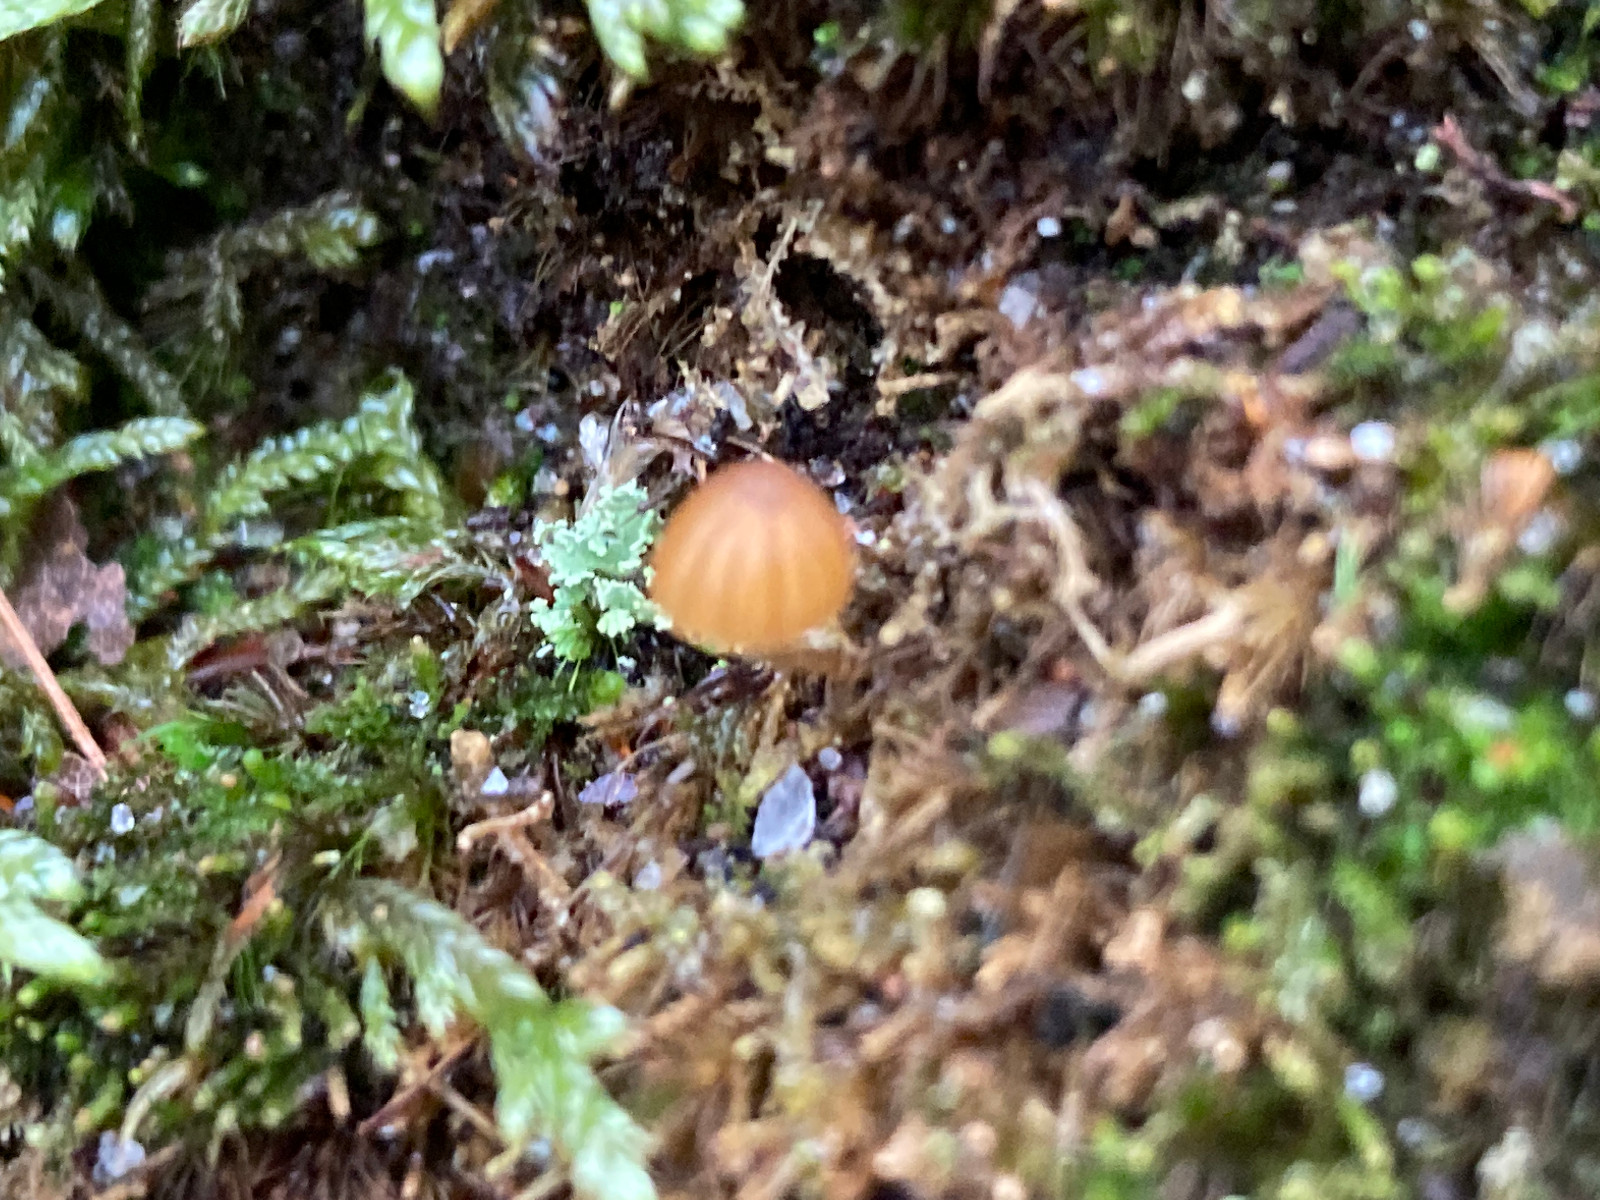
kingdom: Fungi
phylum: Basidiomycota
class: Agaricomycetes
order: Agaricales
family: Hymenogastraceae
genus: Galerina
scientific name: Galerina hypnorum
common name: mos-hjelmhat
